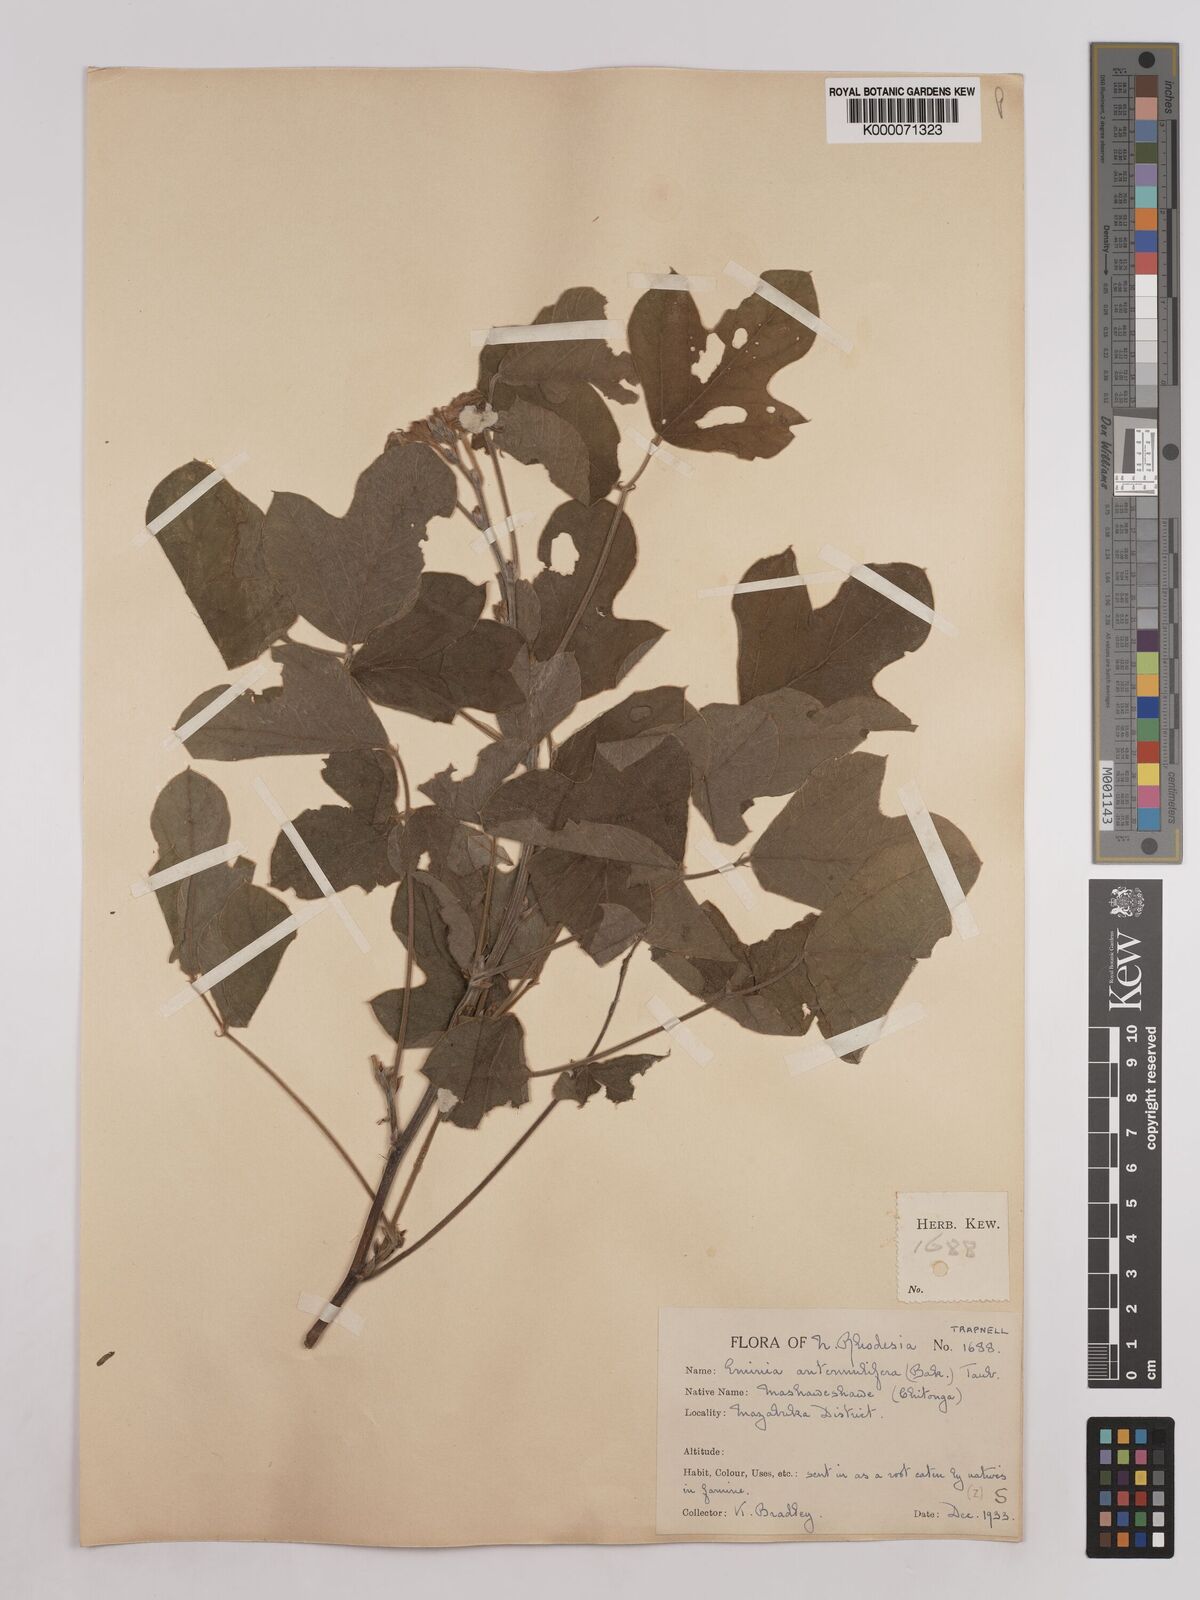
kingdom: Plantae
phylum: Tracheophyta
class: Magnoliopsida
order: Fabales
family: Fabaceae
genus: Eminia
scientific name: Eminia antennulifera
